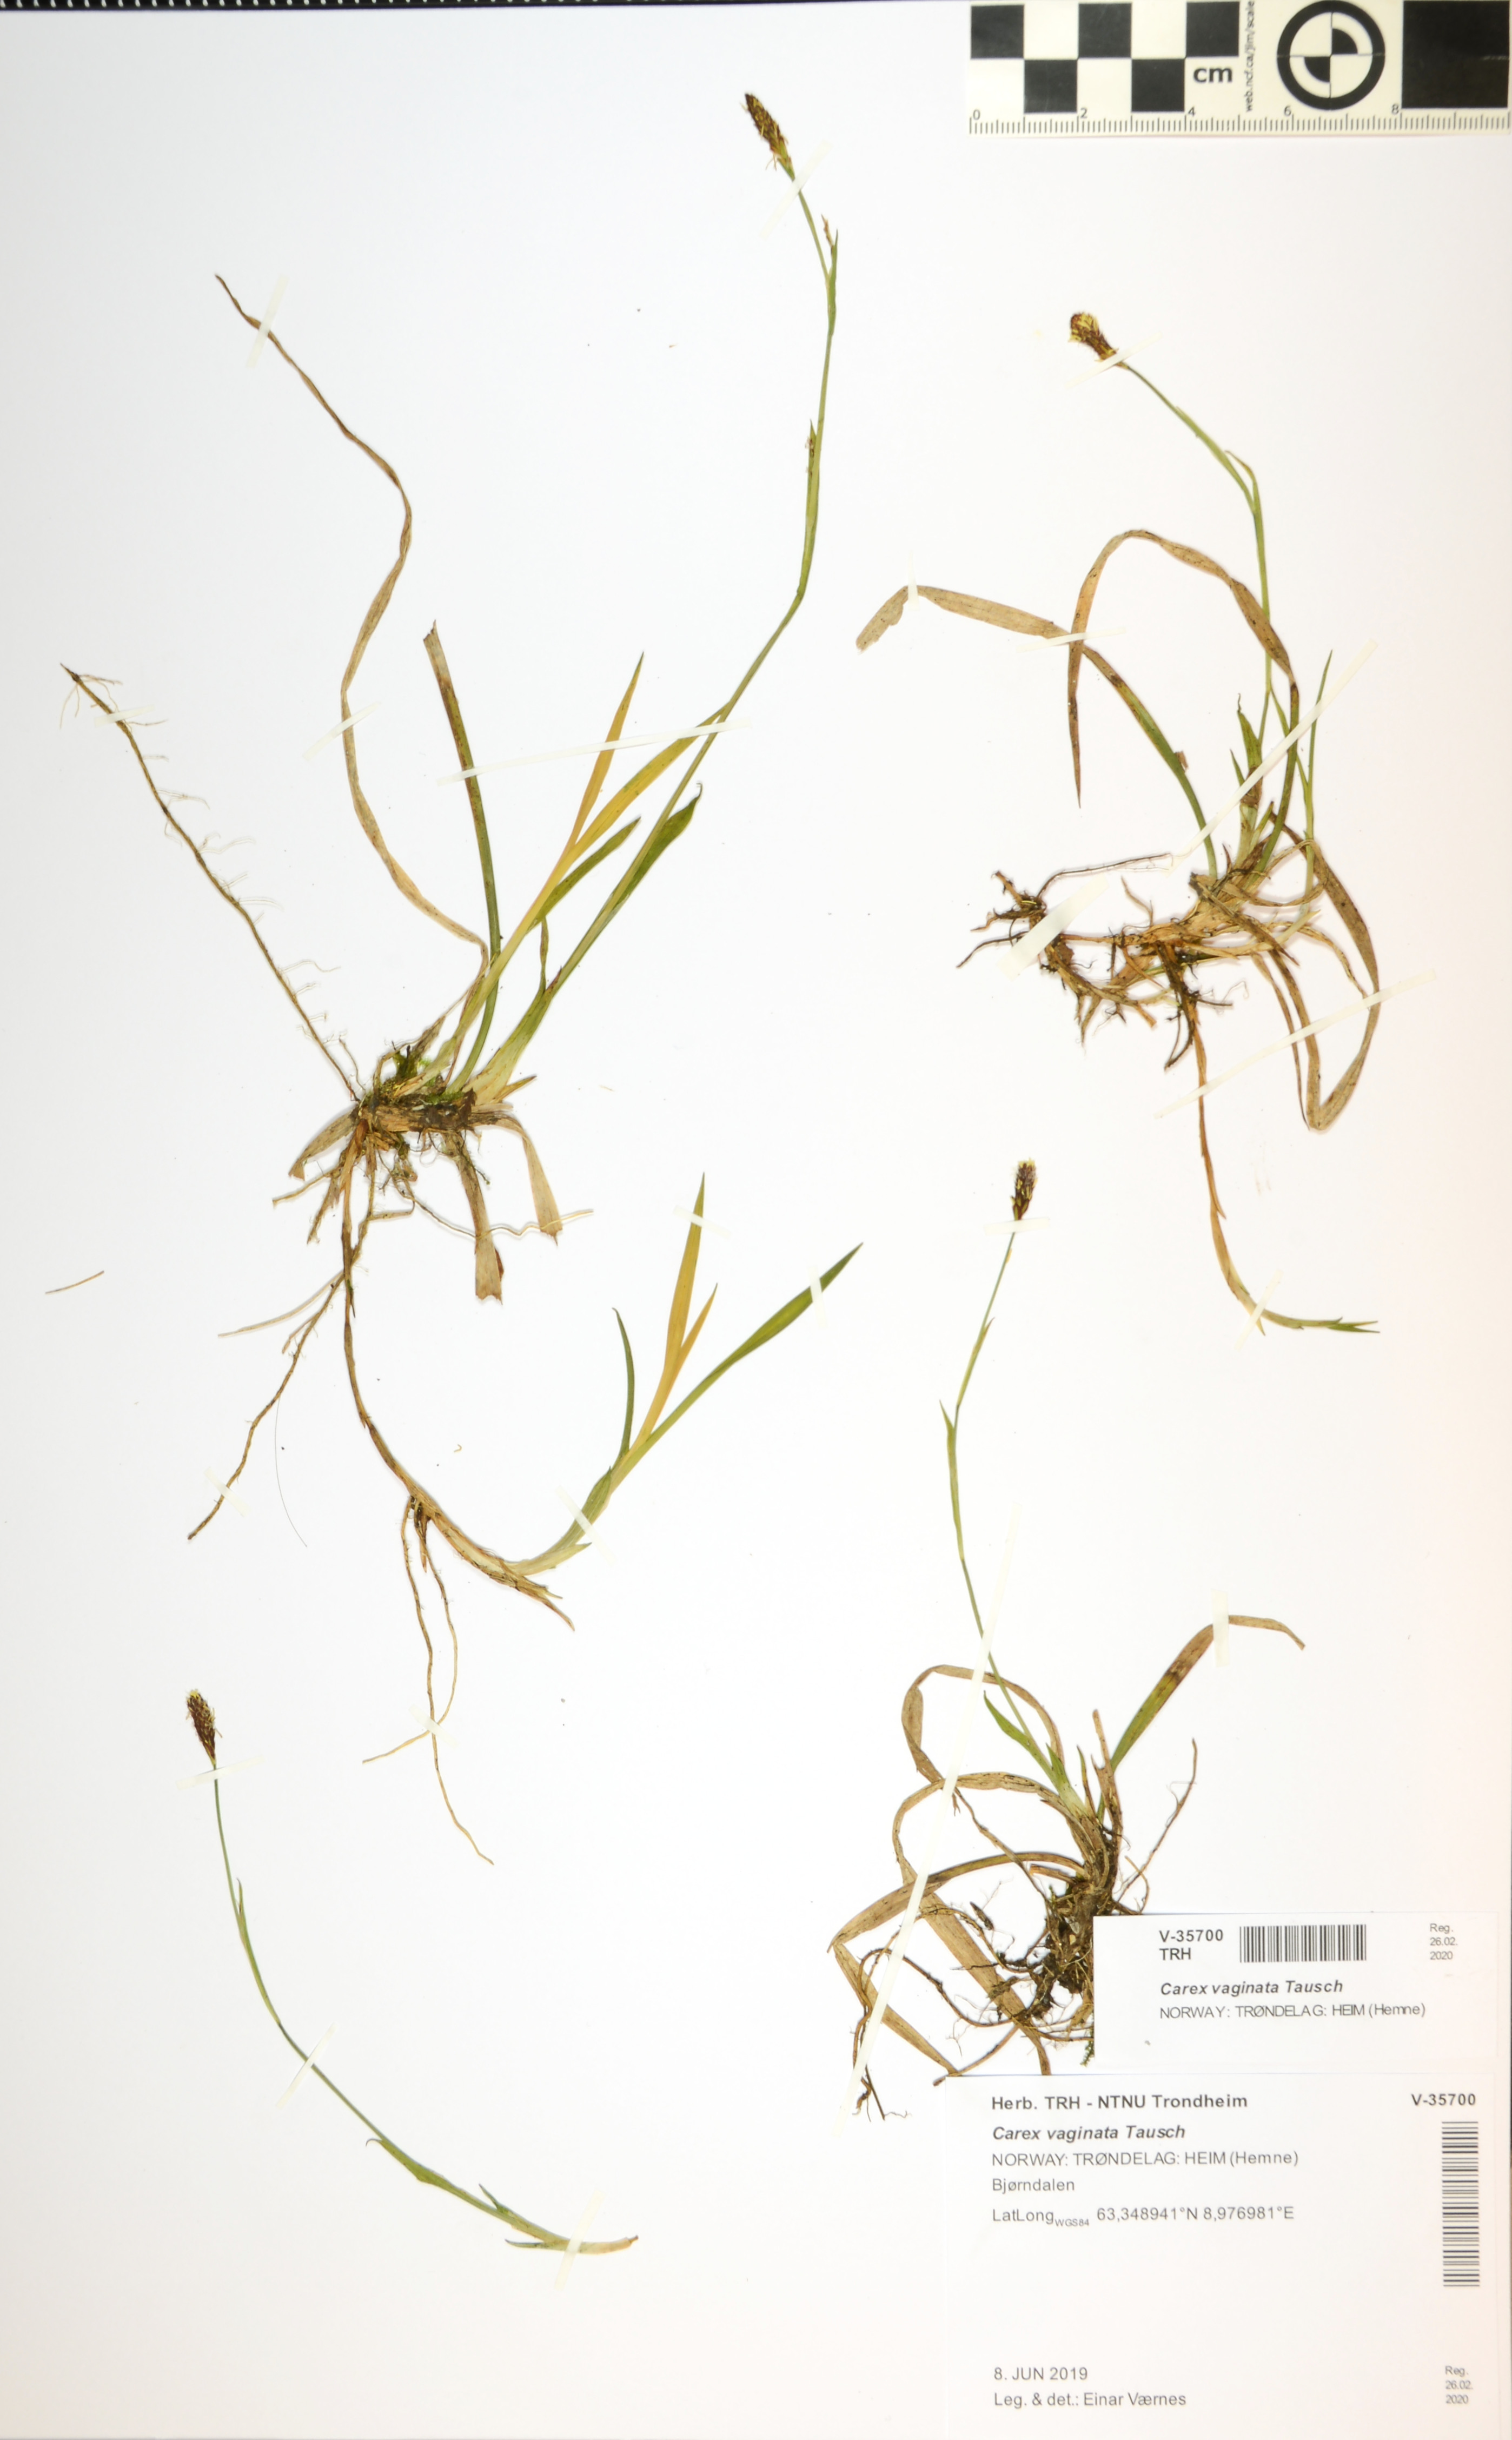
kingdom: Plantae
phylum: Tracheophyta
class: Liliopsida
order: Poales
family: Cyperaceae
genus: Carex
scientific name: Carex vaginata
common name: Sheathed sedge
